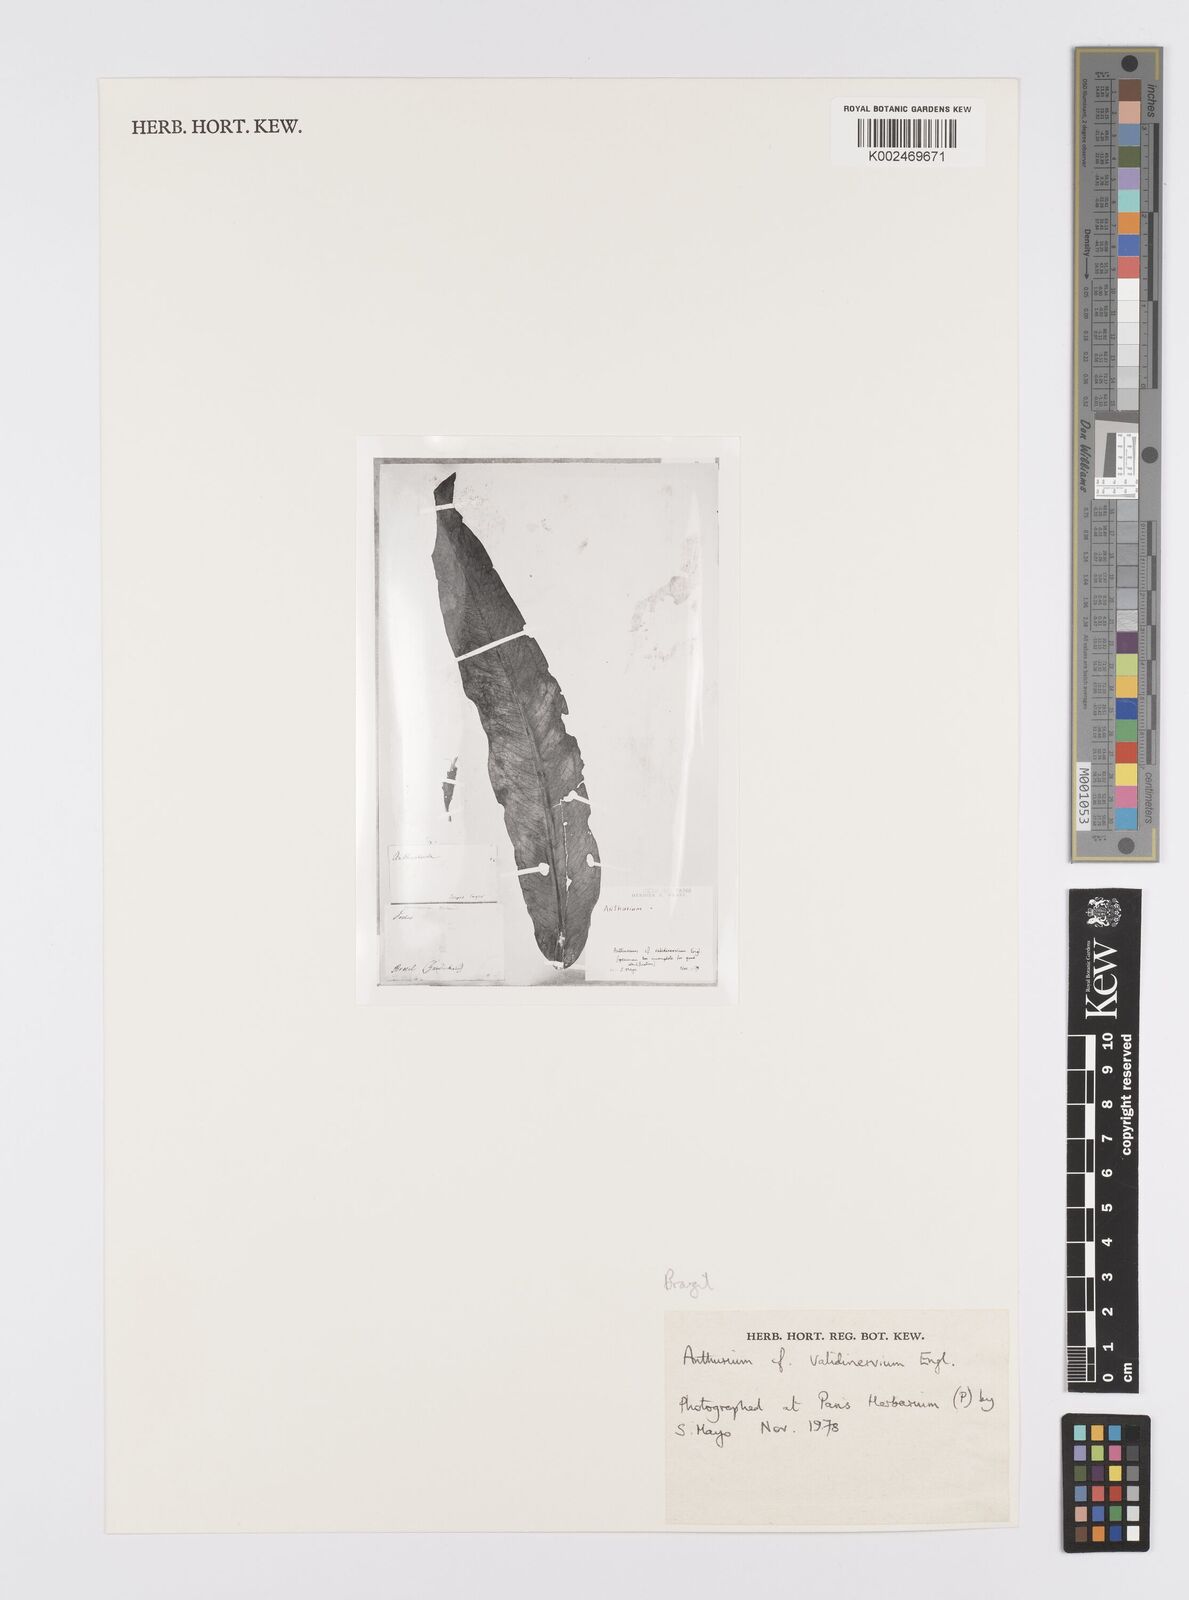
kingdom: Plantae
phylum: Tracheophyta
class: Liliopsida
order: Alismatales
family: Araceae
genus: Anthurium
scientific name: Anthurium validinervium
